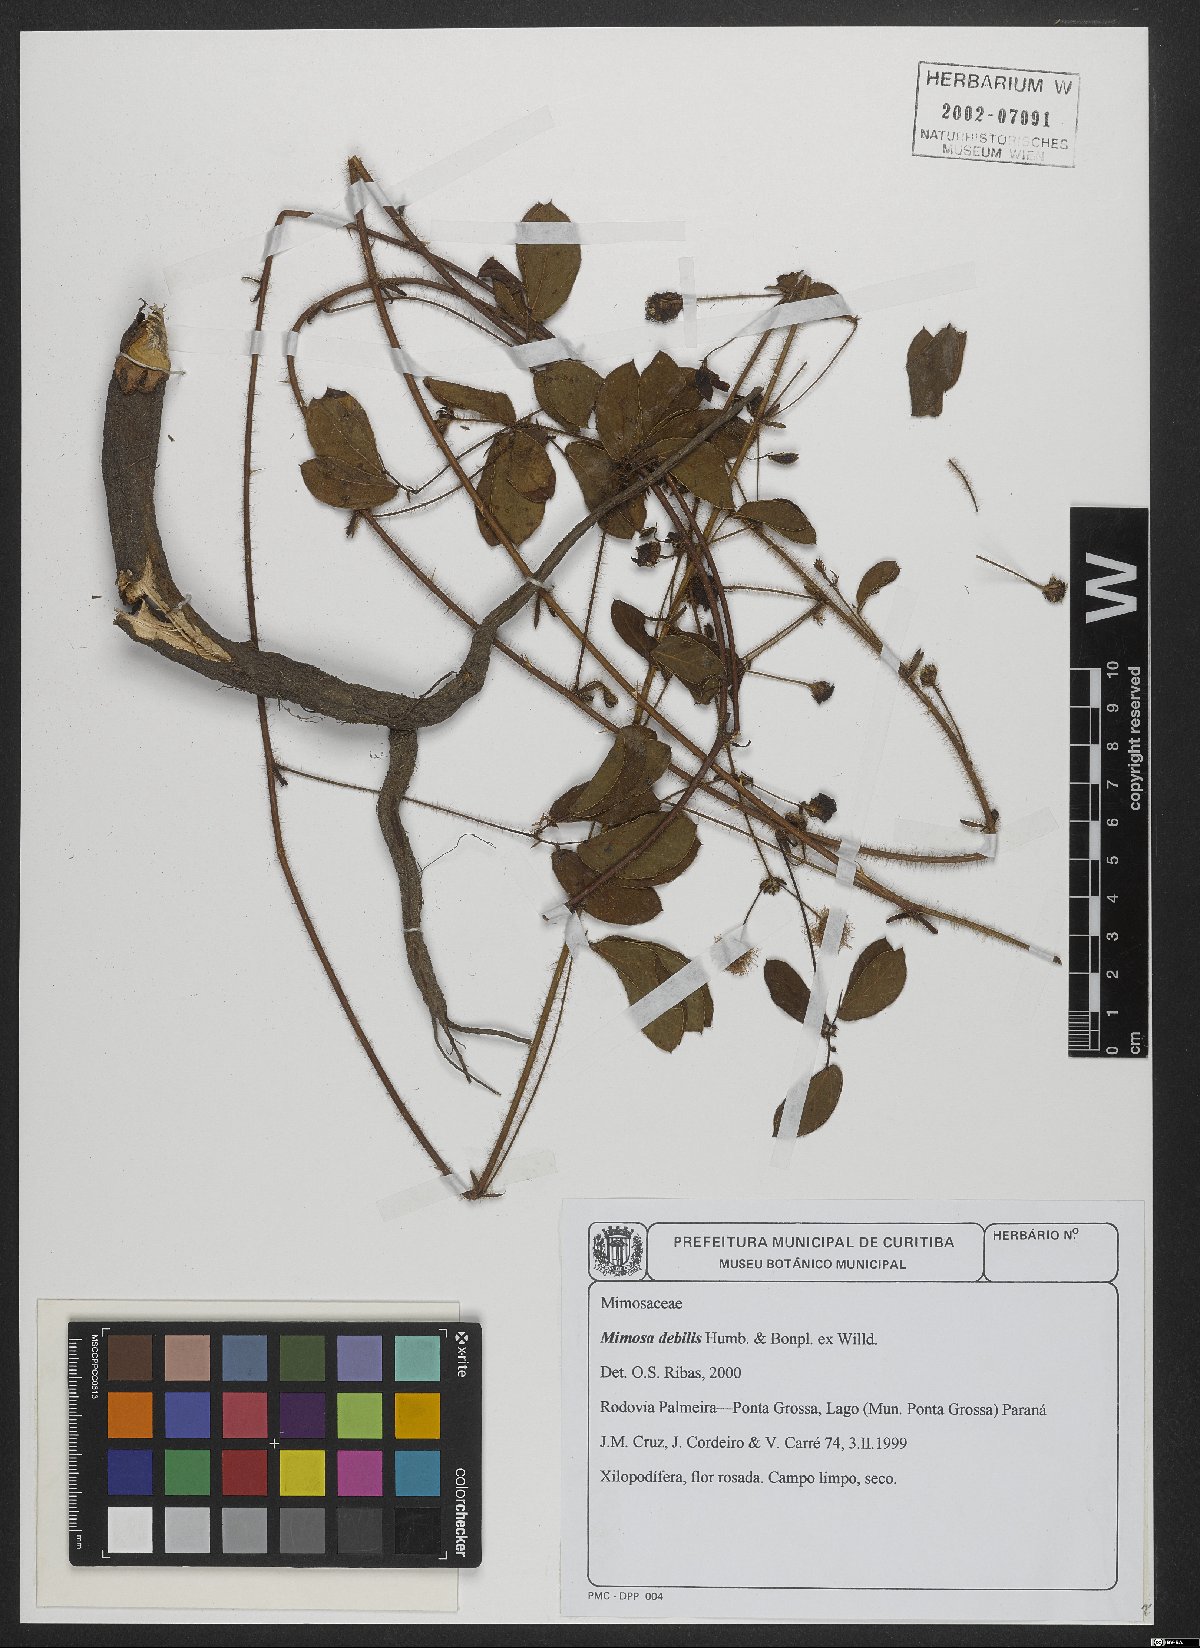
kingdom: Plantae
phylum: Tracheophyta
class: Magnoliopsida
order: Fabales
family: Fabaceae
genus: Mimosa
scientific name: Mimosa debilis
